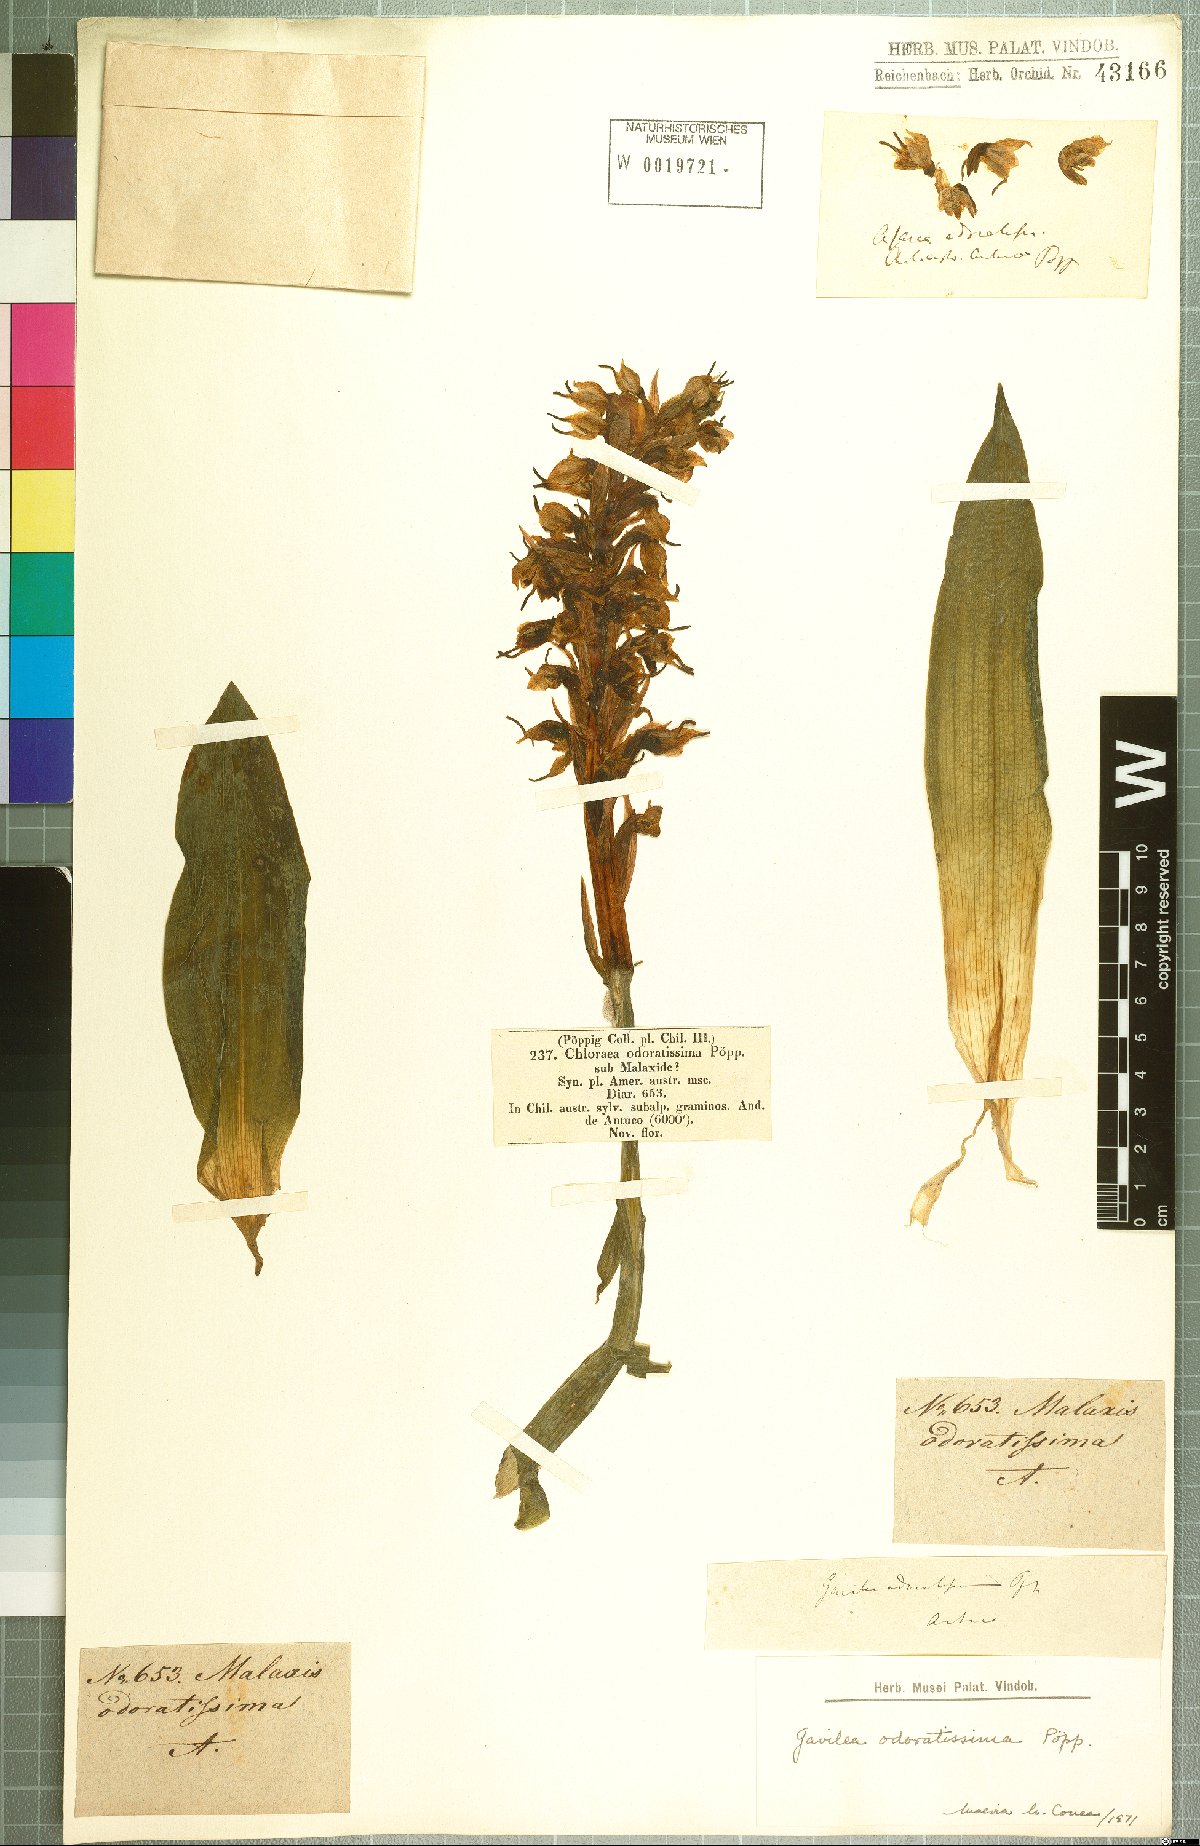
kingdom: Plantae
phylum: Tracheophyta
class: Liliopsida
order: Asparagales
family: Orchidaceae
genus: Gavilea
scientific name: Gavilea odoratissima
